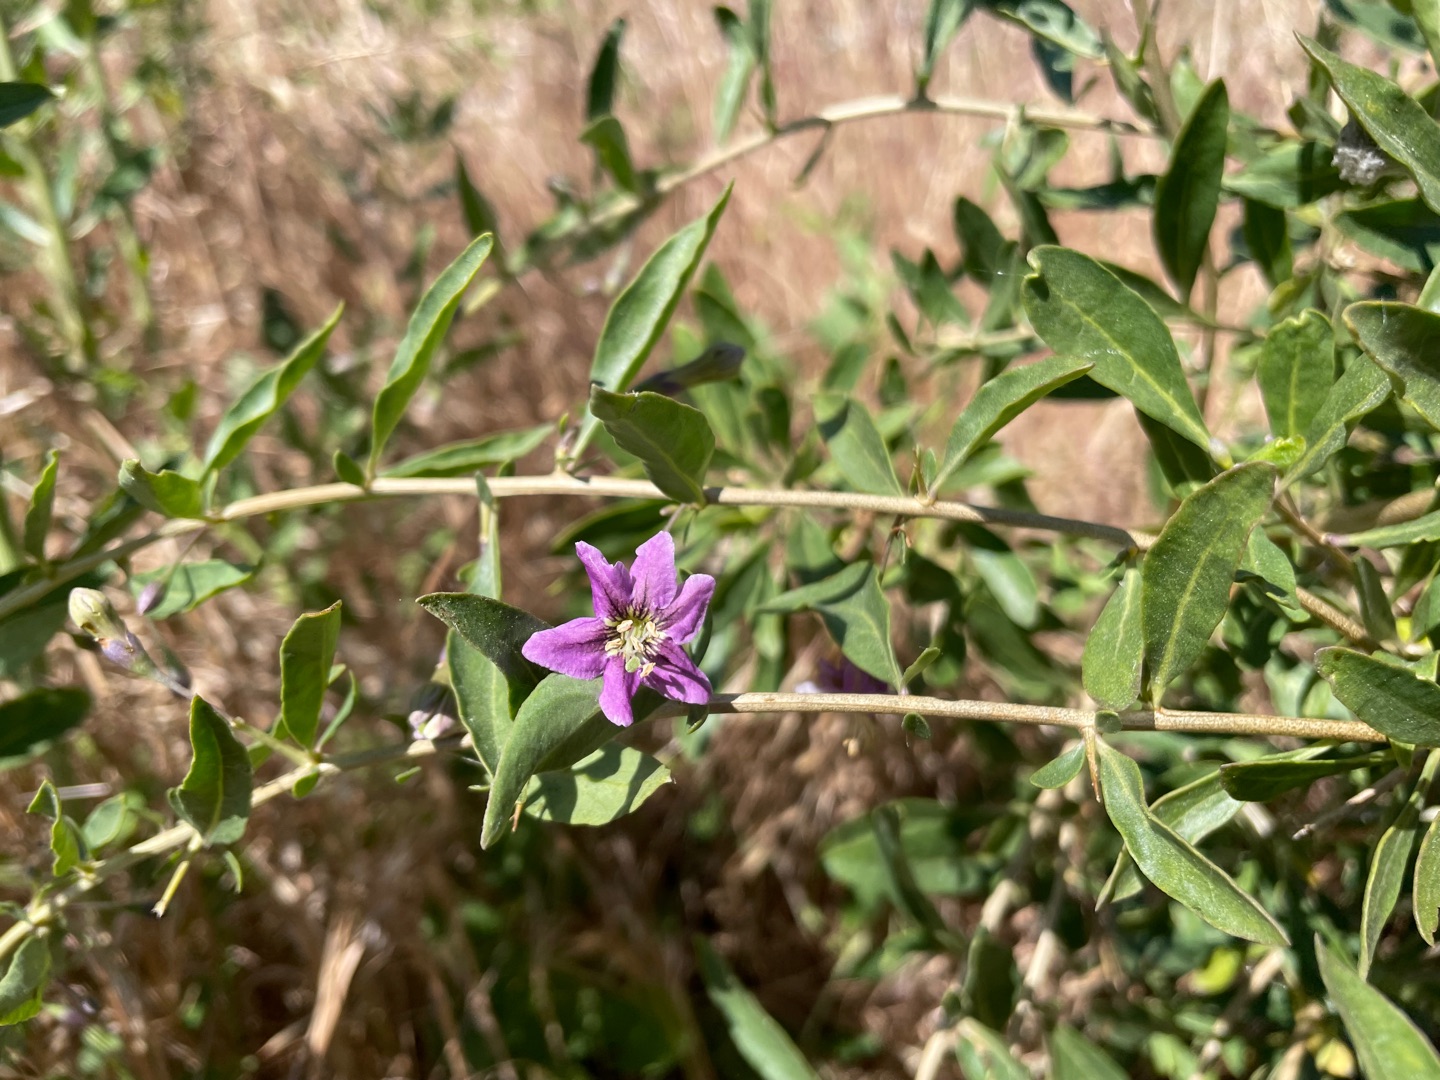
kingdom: Plantae
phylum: Tracheophyta
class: Magnoliopsida
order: Solanales
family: Solanaceae
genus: Lycium
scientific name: Lycium barbarum
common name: Bukketorn
